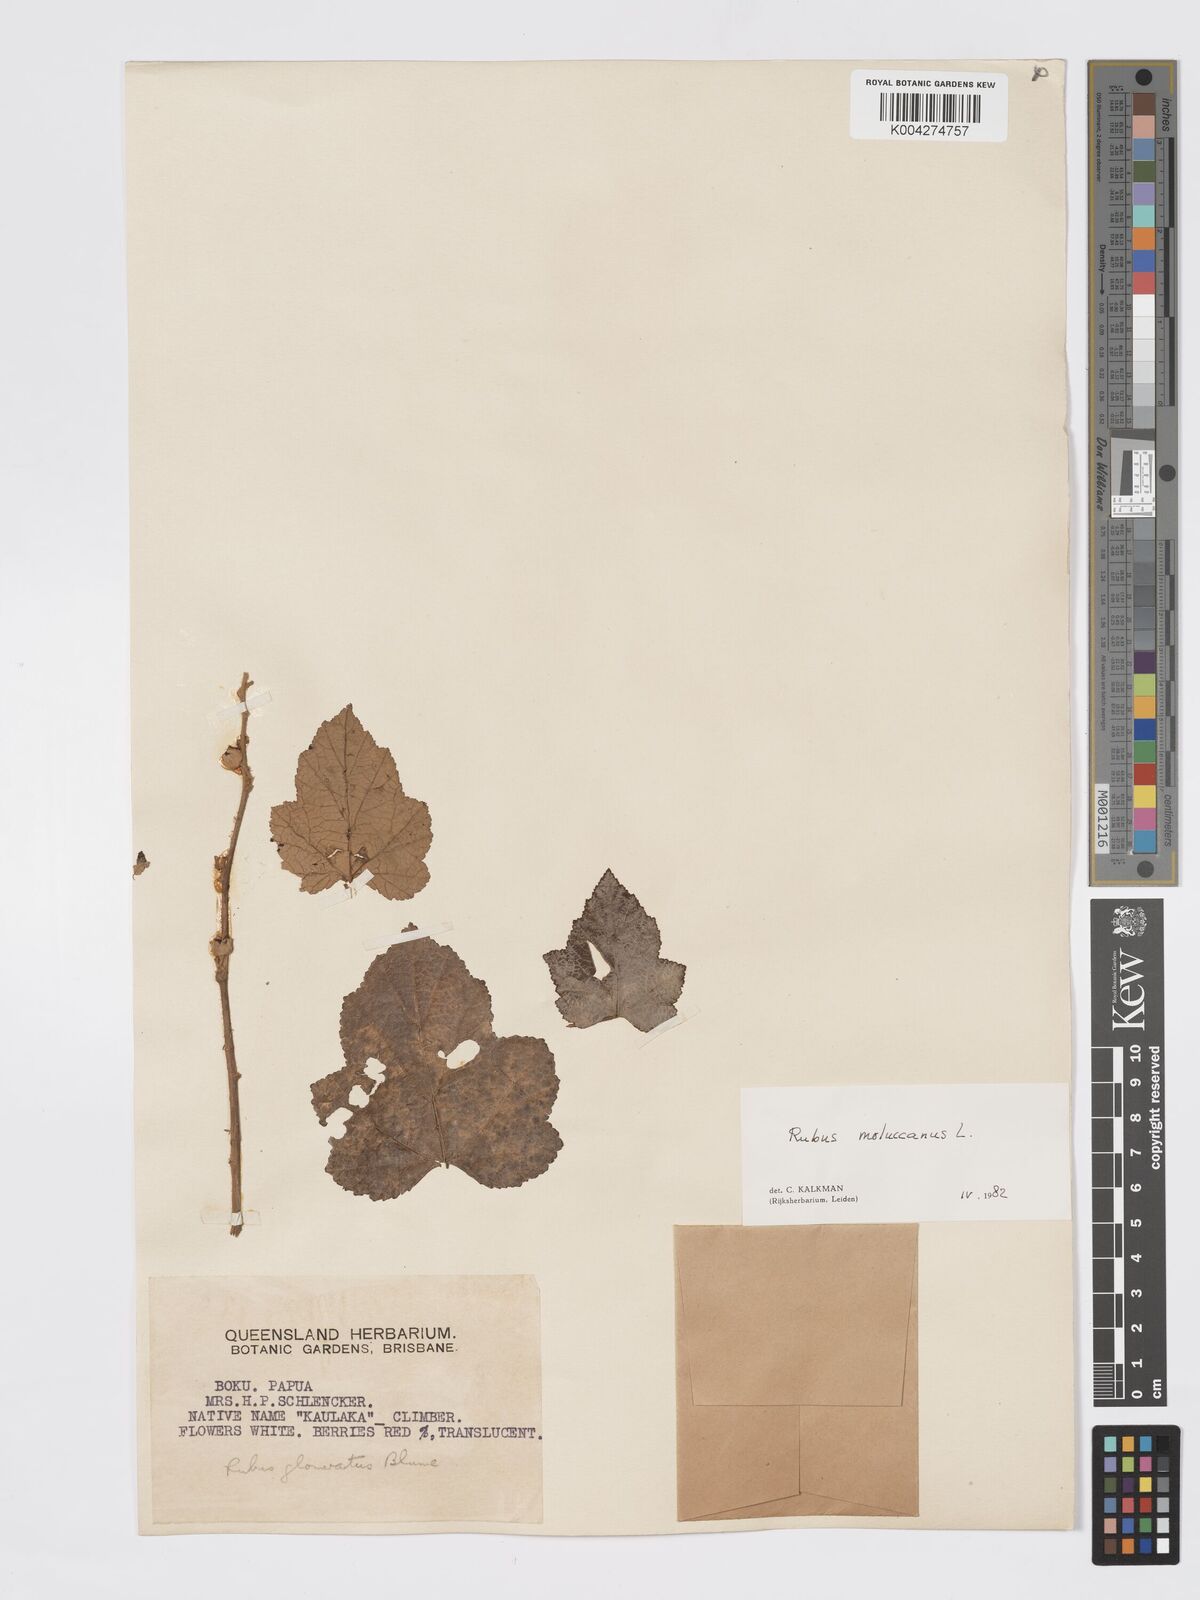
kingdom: Plantae
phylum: Tracheophyta
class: Magnoliopsida
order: Rosales
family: Rosaceae
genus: Rubus
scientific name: Rubus moluccanus
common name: Wild raspberry
